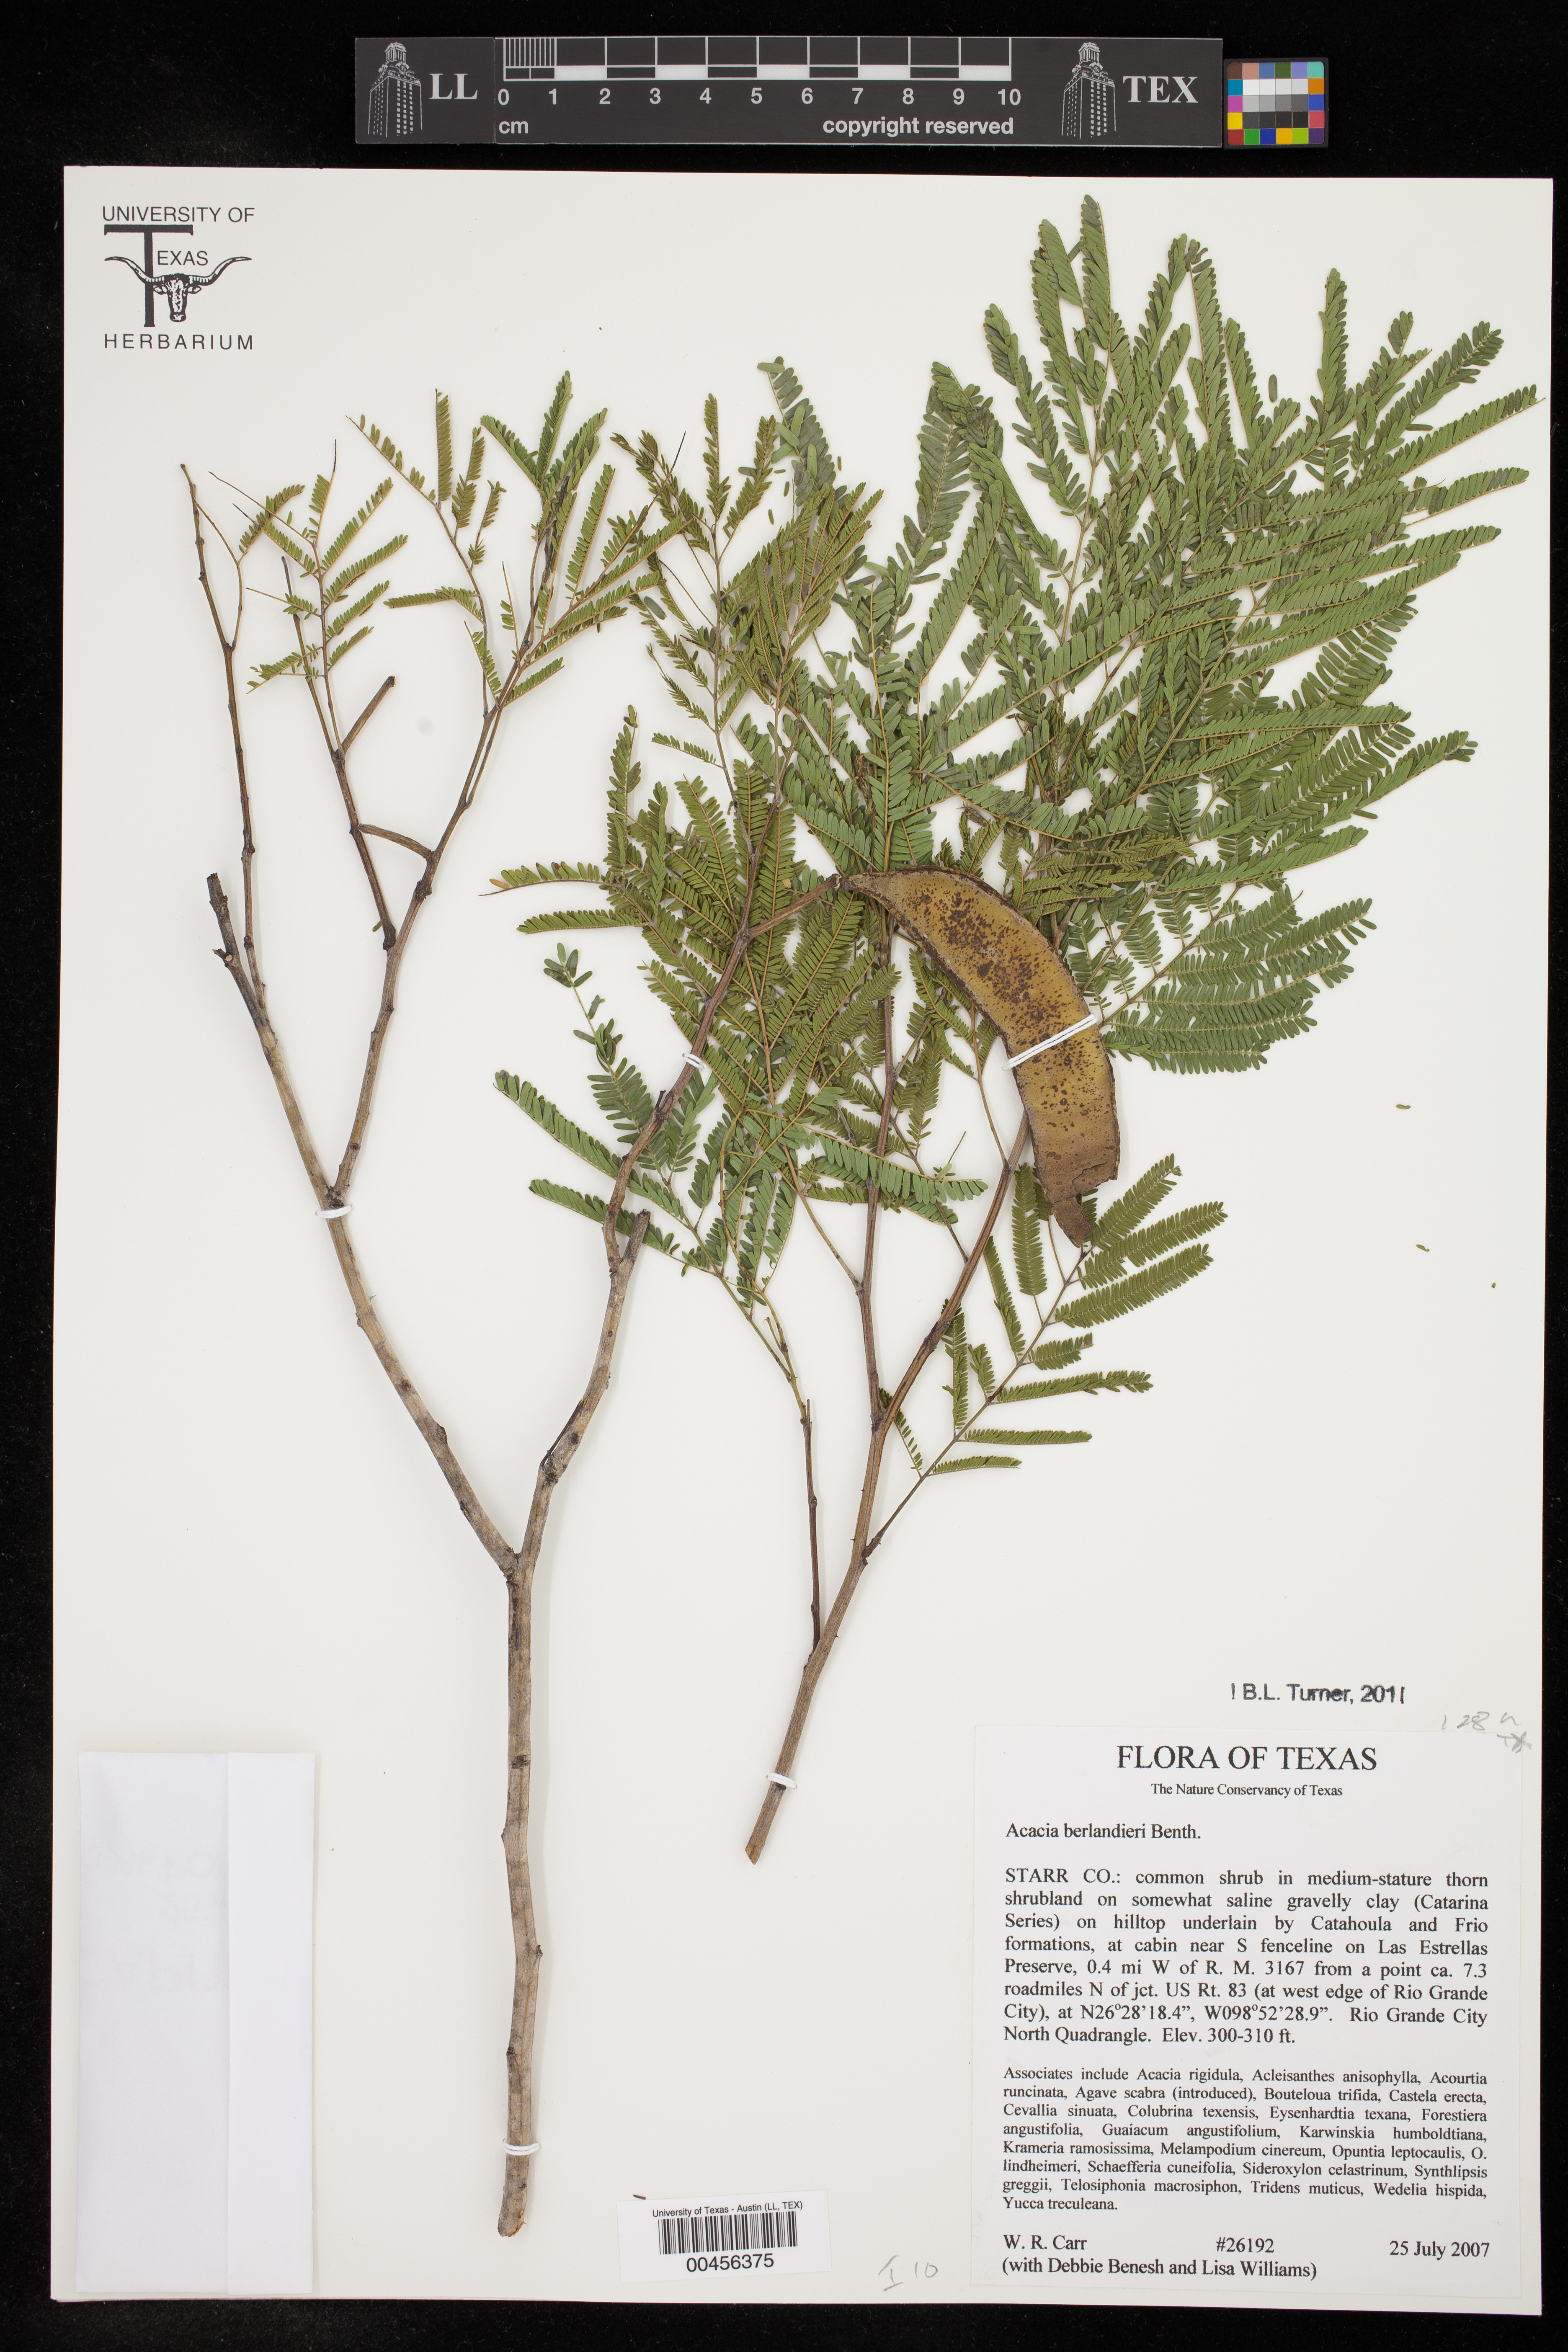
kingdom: Plantae
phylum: Tracheophyta
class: Magnoliopsida
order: Fabales
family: Fabaceae
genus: Senegalia
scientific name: Senegalia berlandieri
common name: Berlandier acacia
